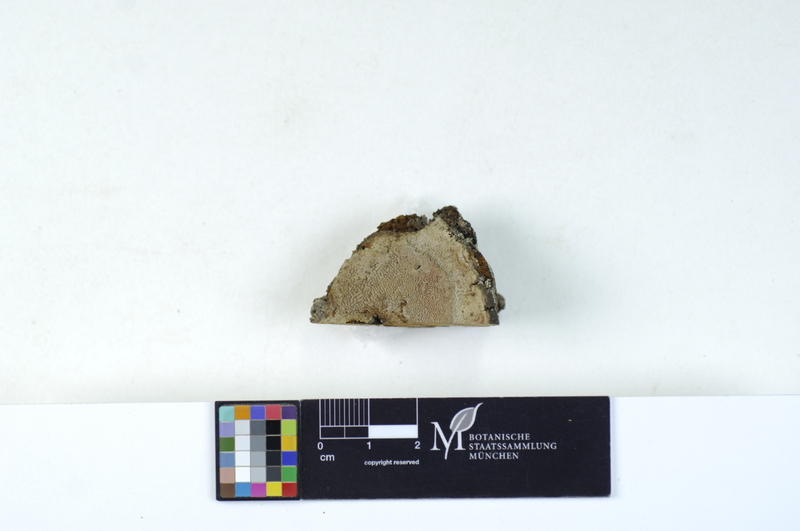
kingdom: Fungi
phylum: Basidiomycota
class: Agaricomycetes
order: Hymenochaetales
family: Hymenochaetaceae
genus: Phellinus
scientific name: Phellinus chrysoloma
